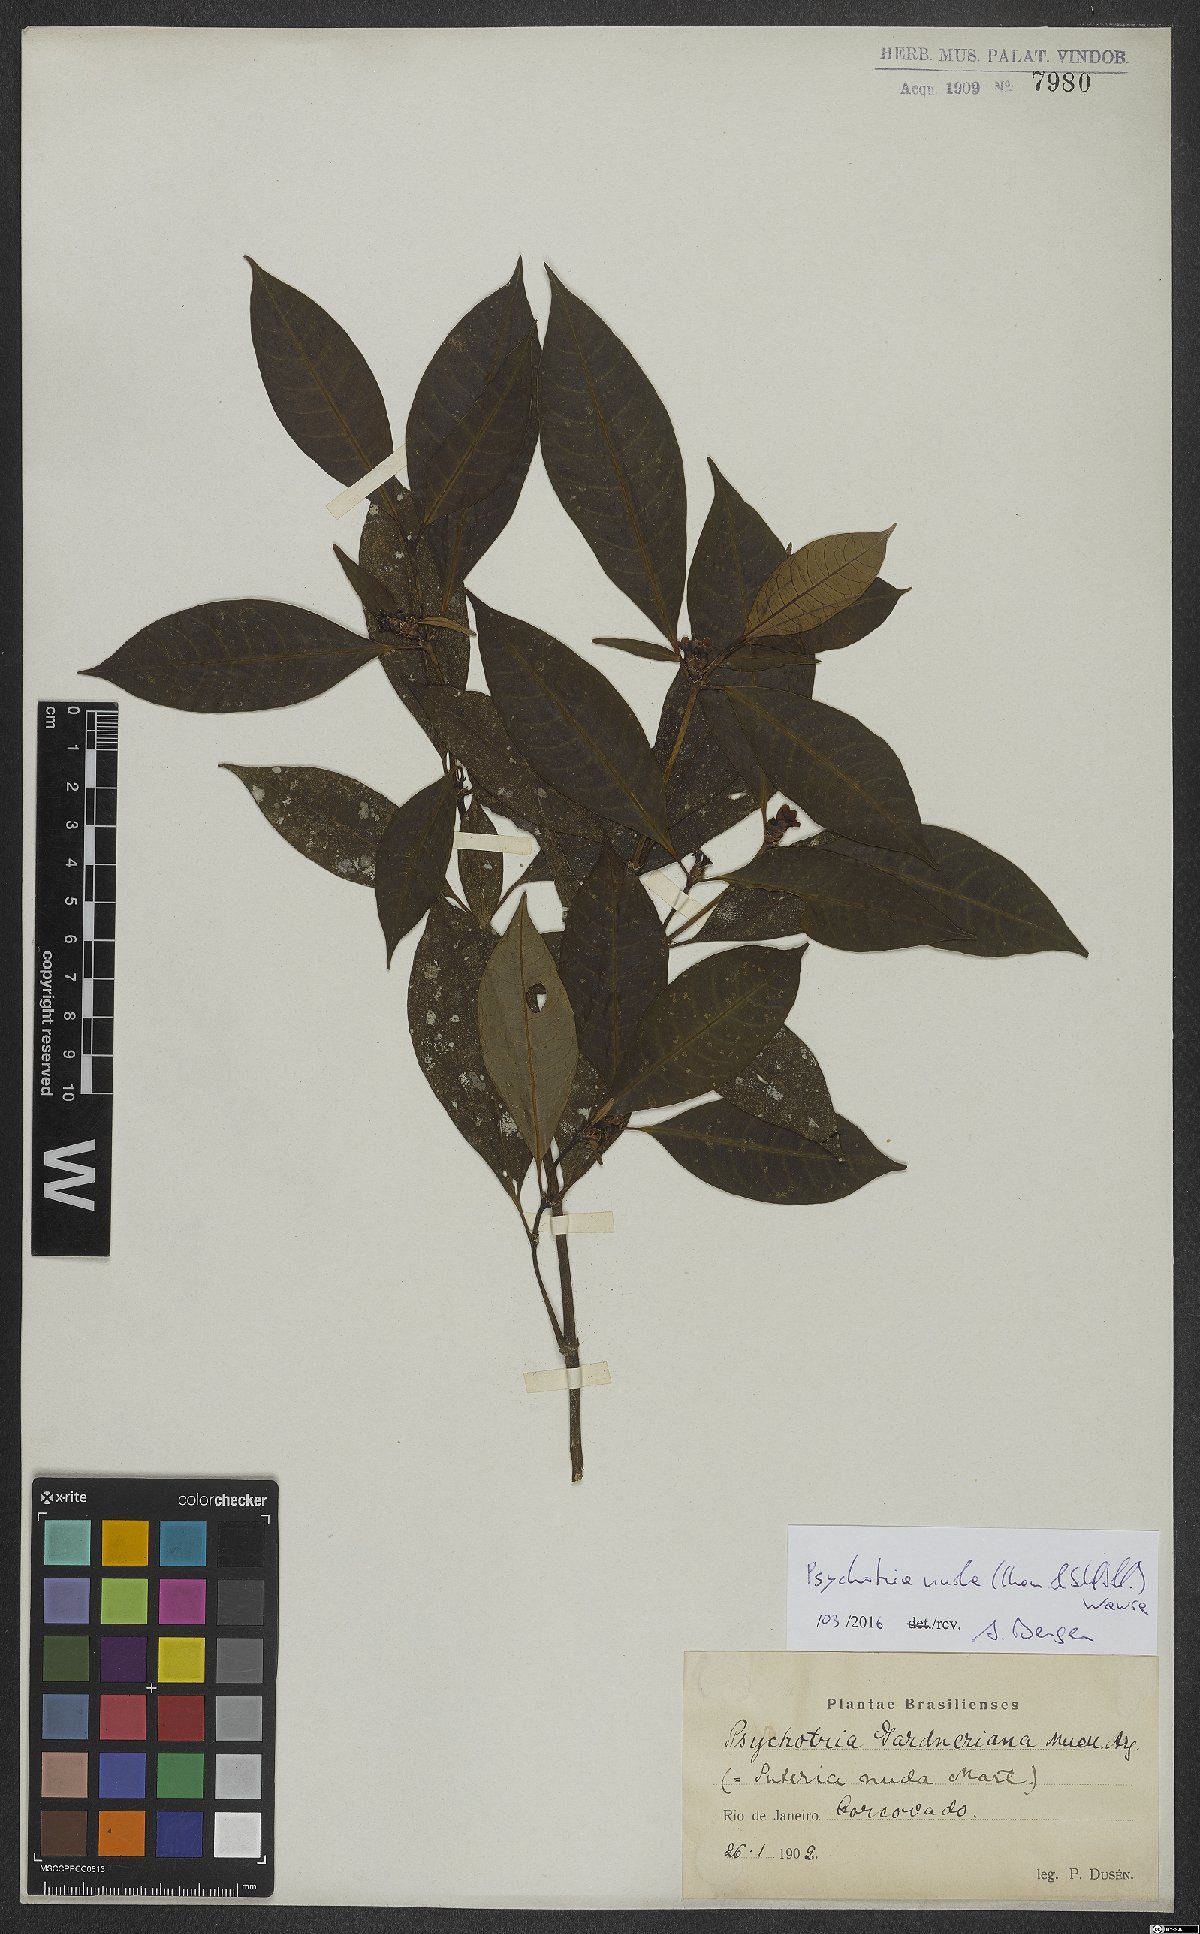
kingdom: Plantae
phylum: Tracheophyta
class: Magnoliopsida
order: Gentianales
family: Rubiaceae
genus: Psychotria
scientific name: Psychotria nuda
